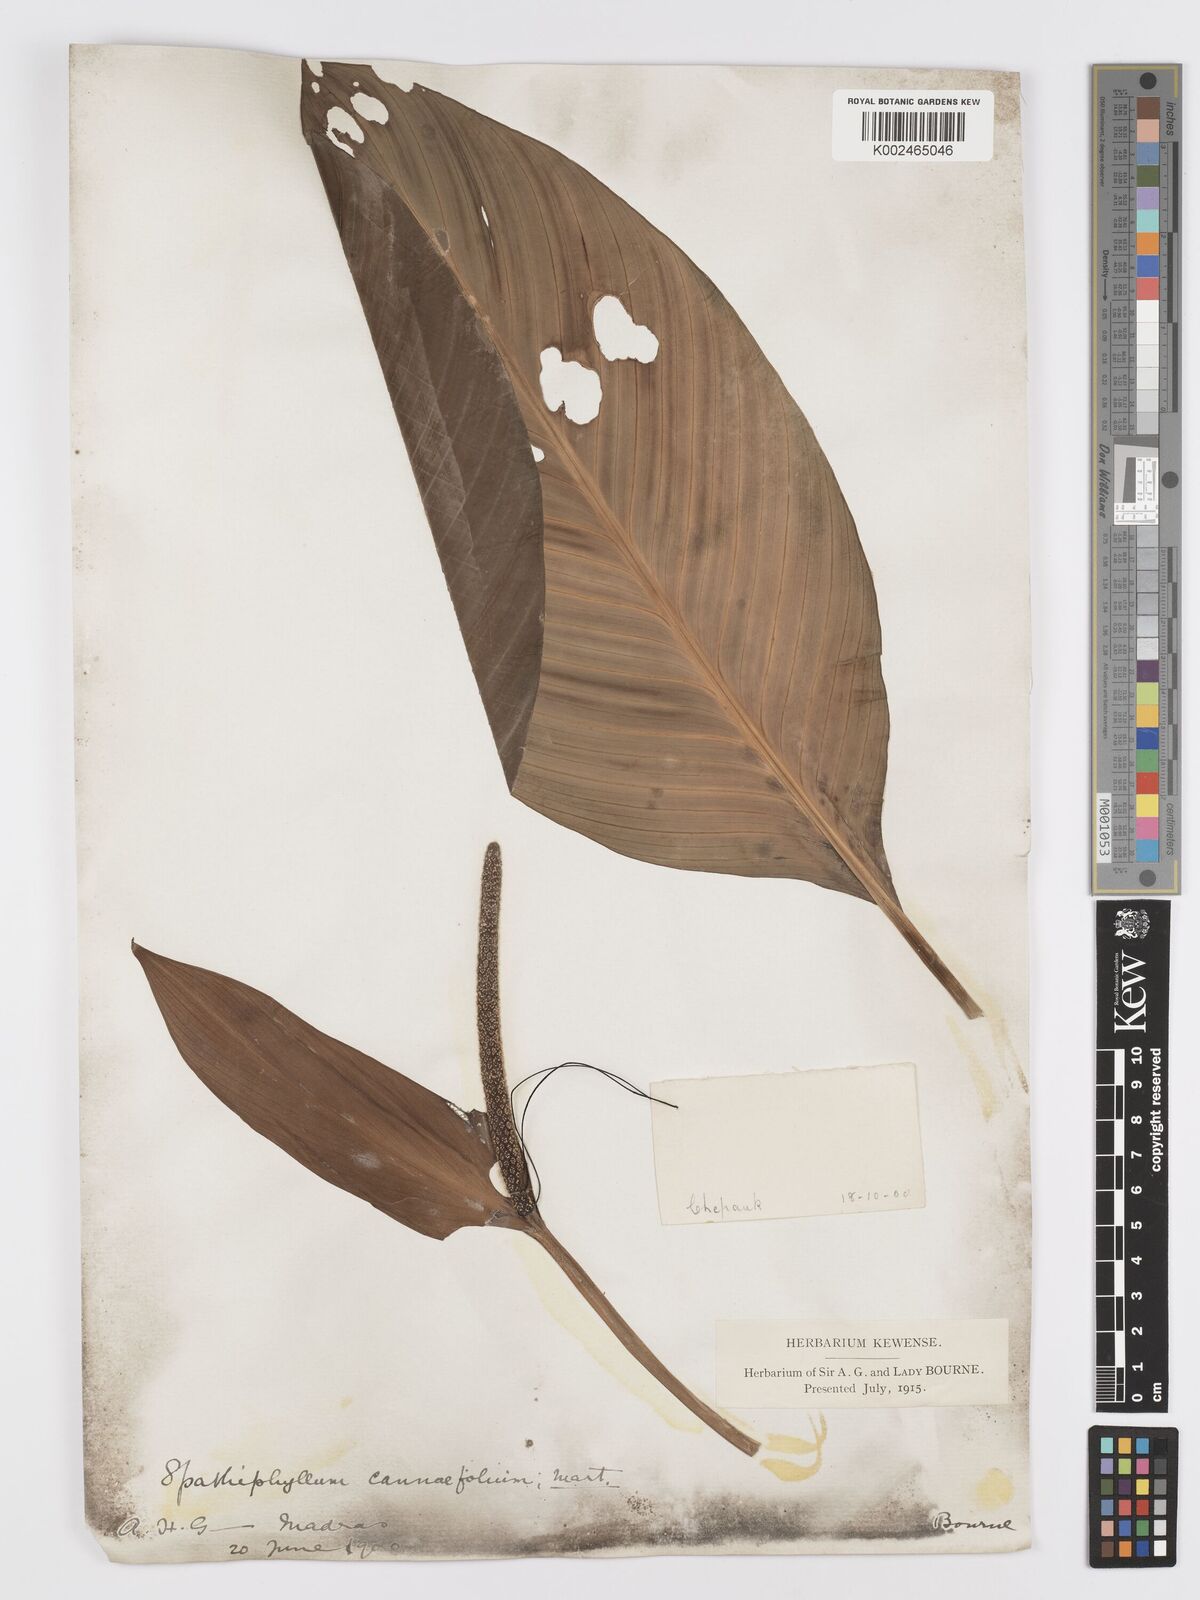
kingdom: Plantae
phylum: Tracheophyta
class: Liliopsida
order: Alismatales
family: Araceae
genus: Spathiphyllum
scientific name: Spathiphyllum cannifolium
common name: Spatheflower
